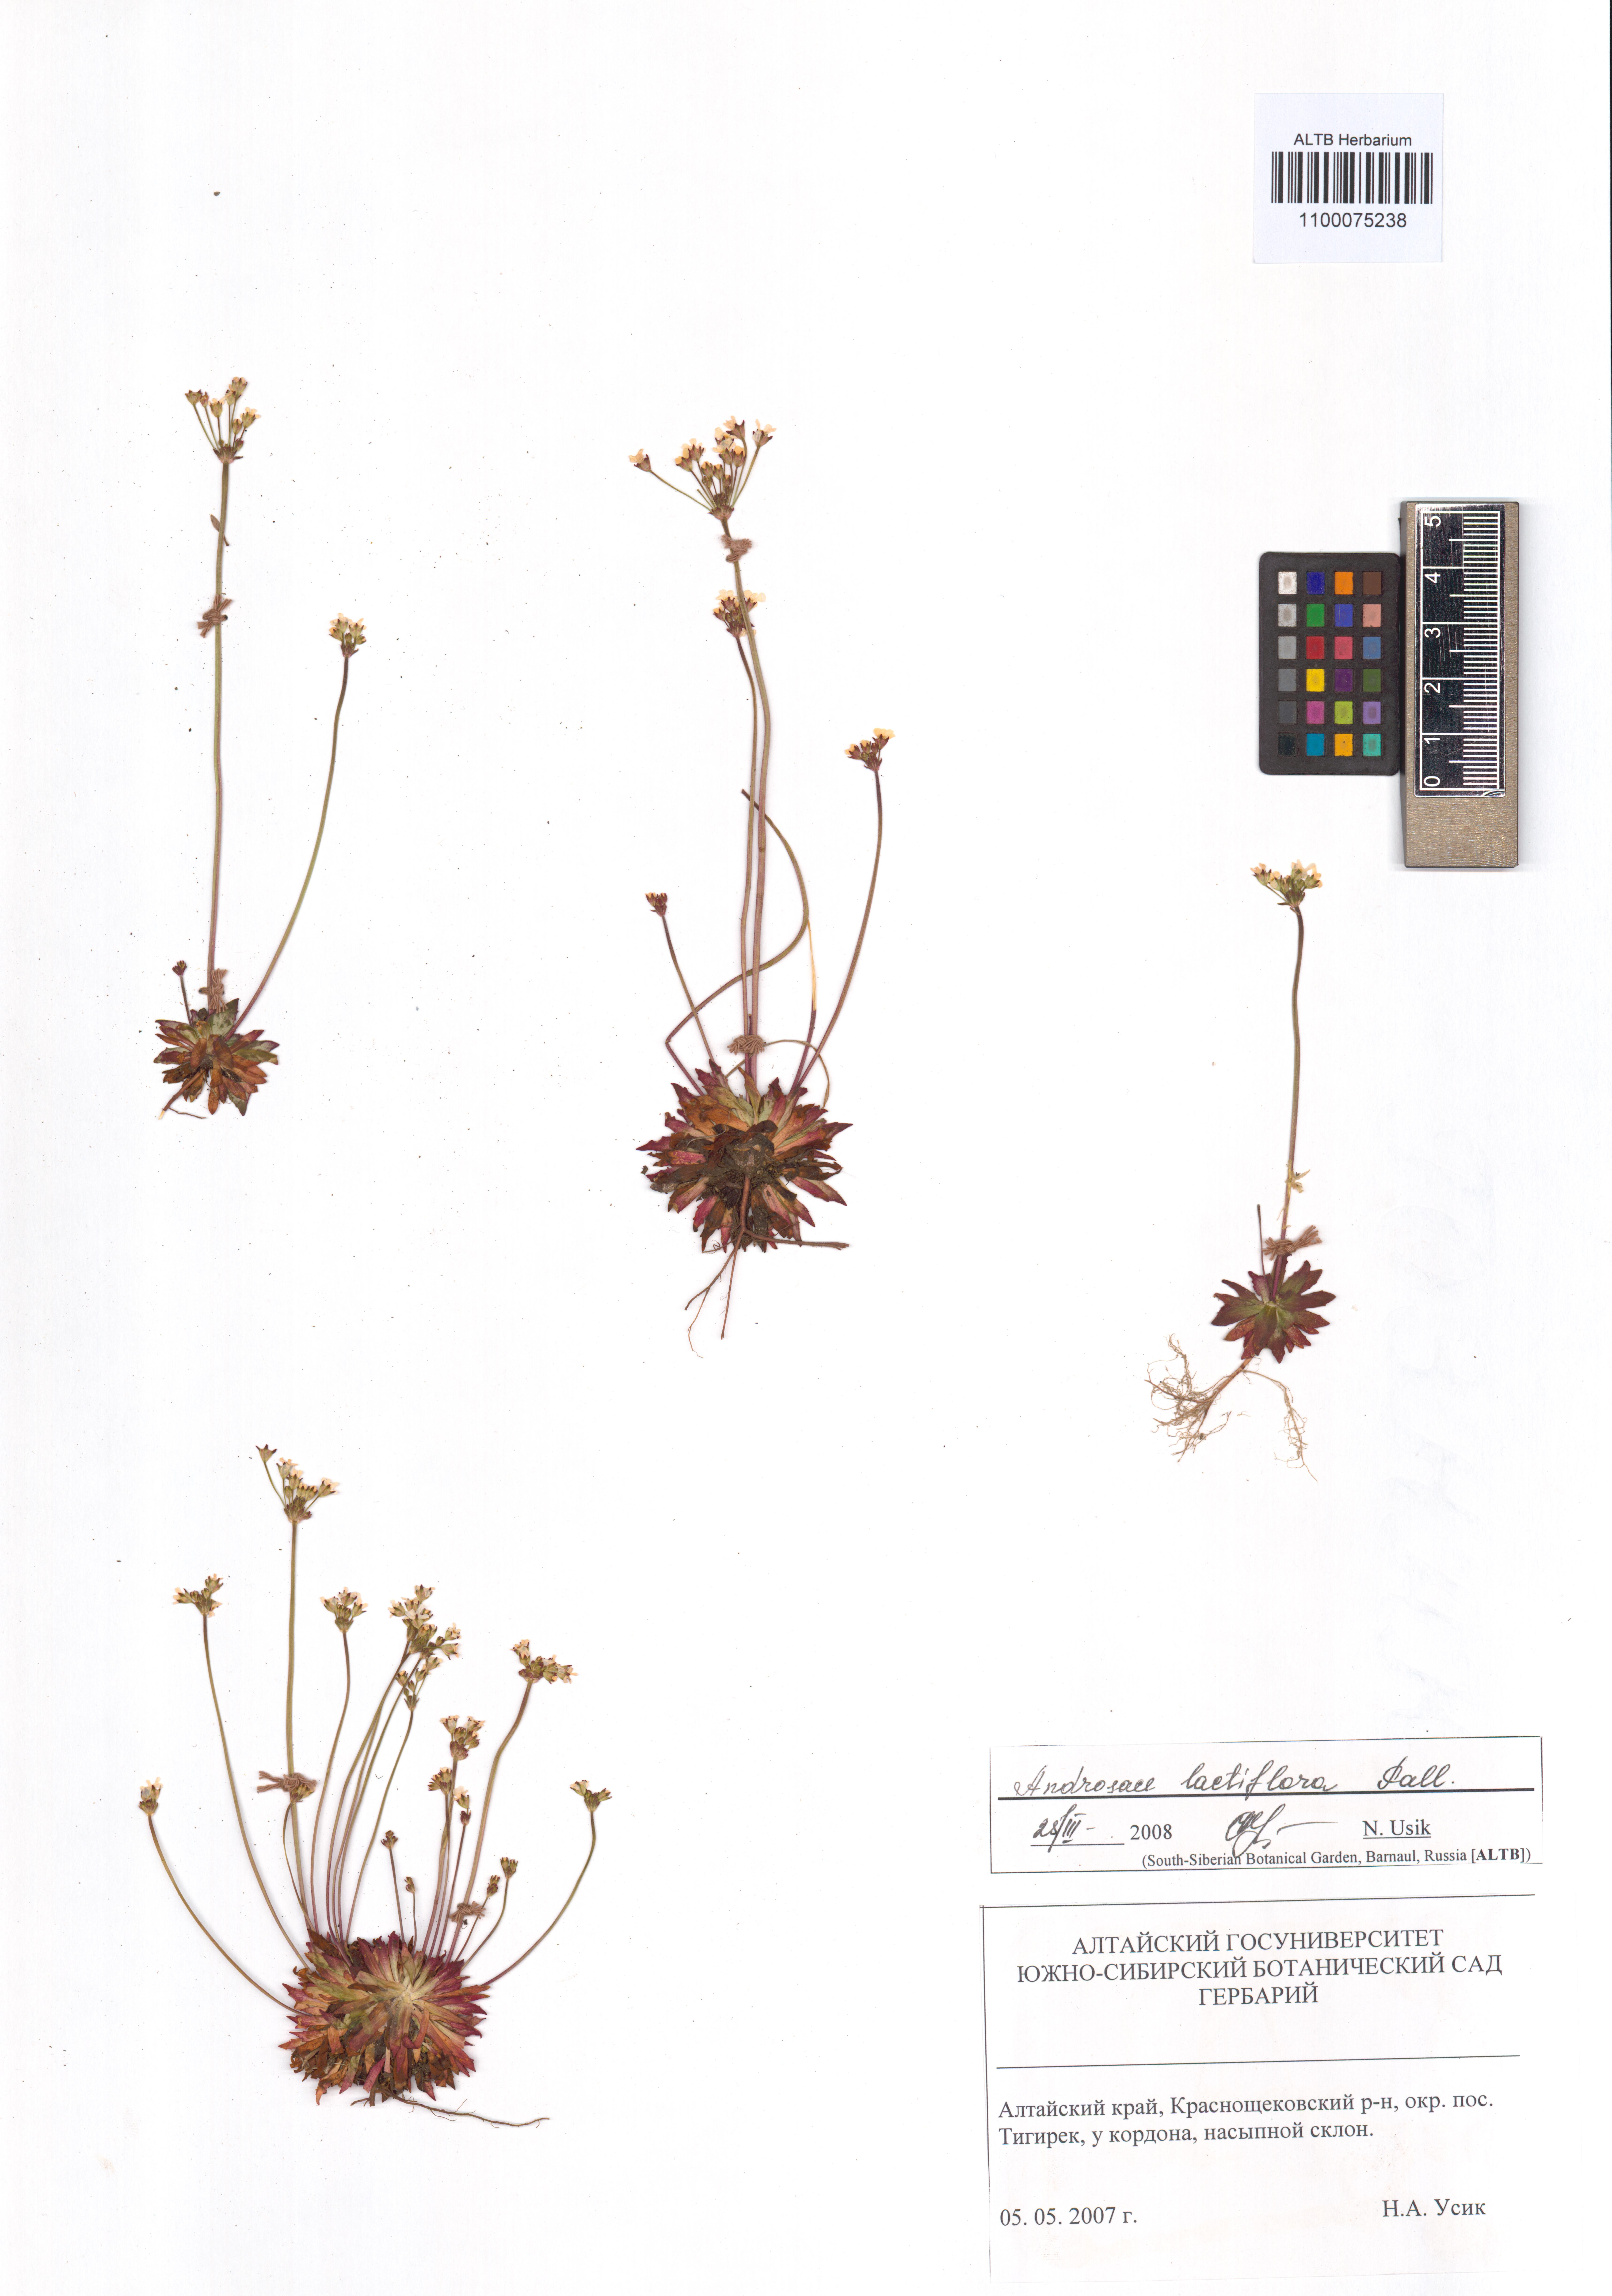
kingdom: Plantae
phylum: Tracheophyta
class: Magnoliopsida
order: Ericales
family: Primulaceae
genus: Androsace
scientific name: Androsace lactiflora
